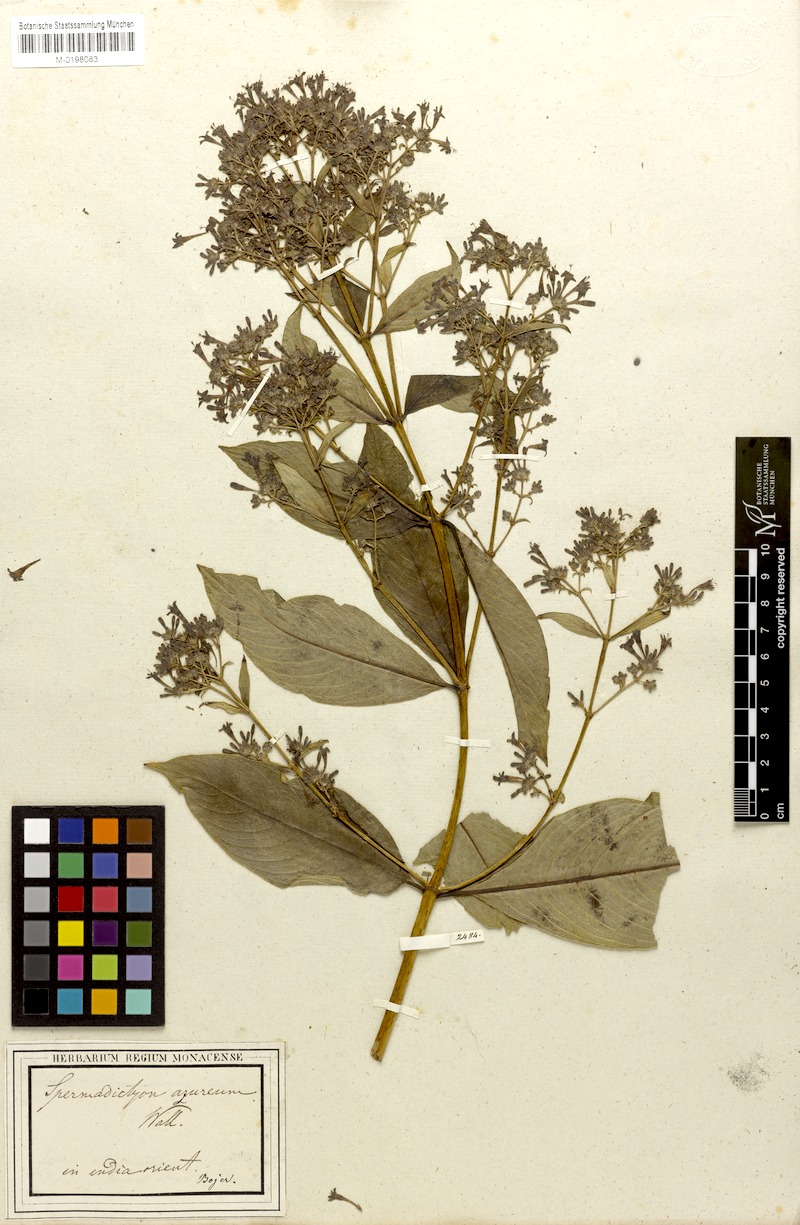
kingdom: Plantae
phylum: Tracheophyta
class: Magnoliopsida
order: Gentianales
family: Rubiaceae
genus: Spermadictyon
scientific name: Spermadictyon suaveolens
